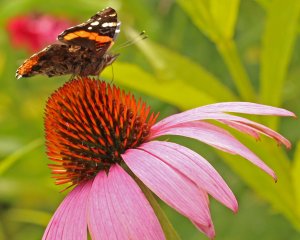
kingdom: Animalia
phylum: Arthropoda
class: Insecta
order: Lepidoptera
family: Nymphalidae
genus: Vanessa
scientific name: Vanessa atalanta
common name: Red Admiral
